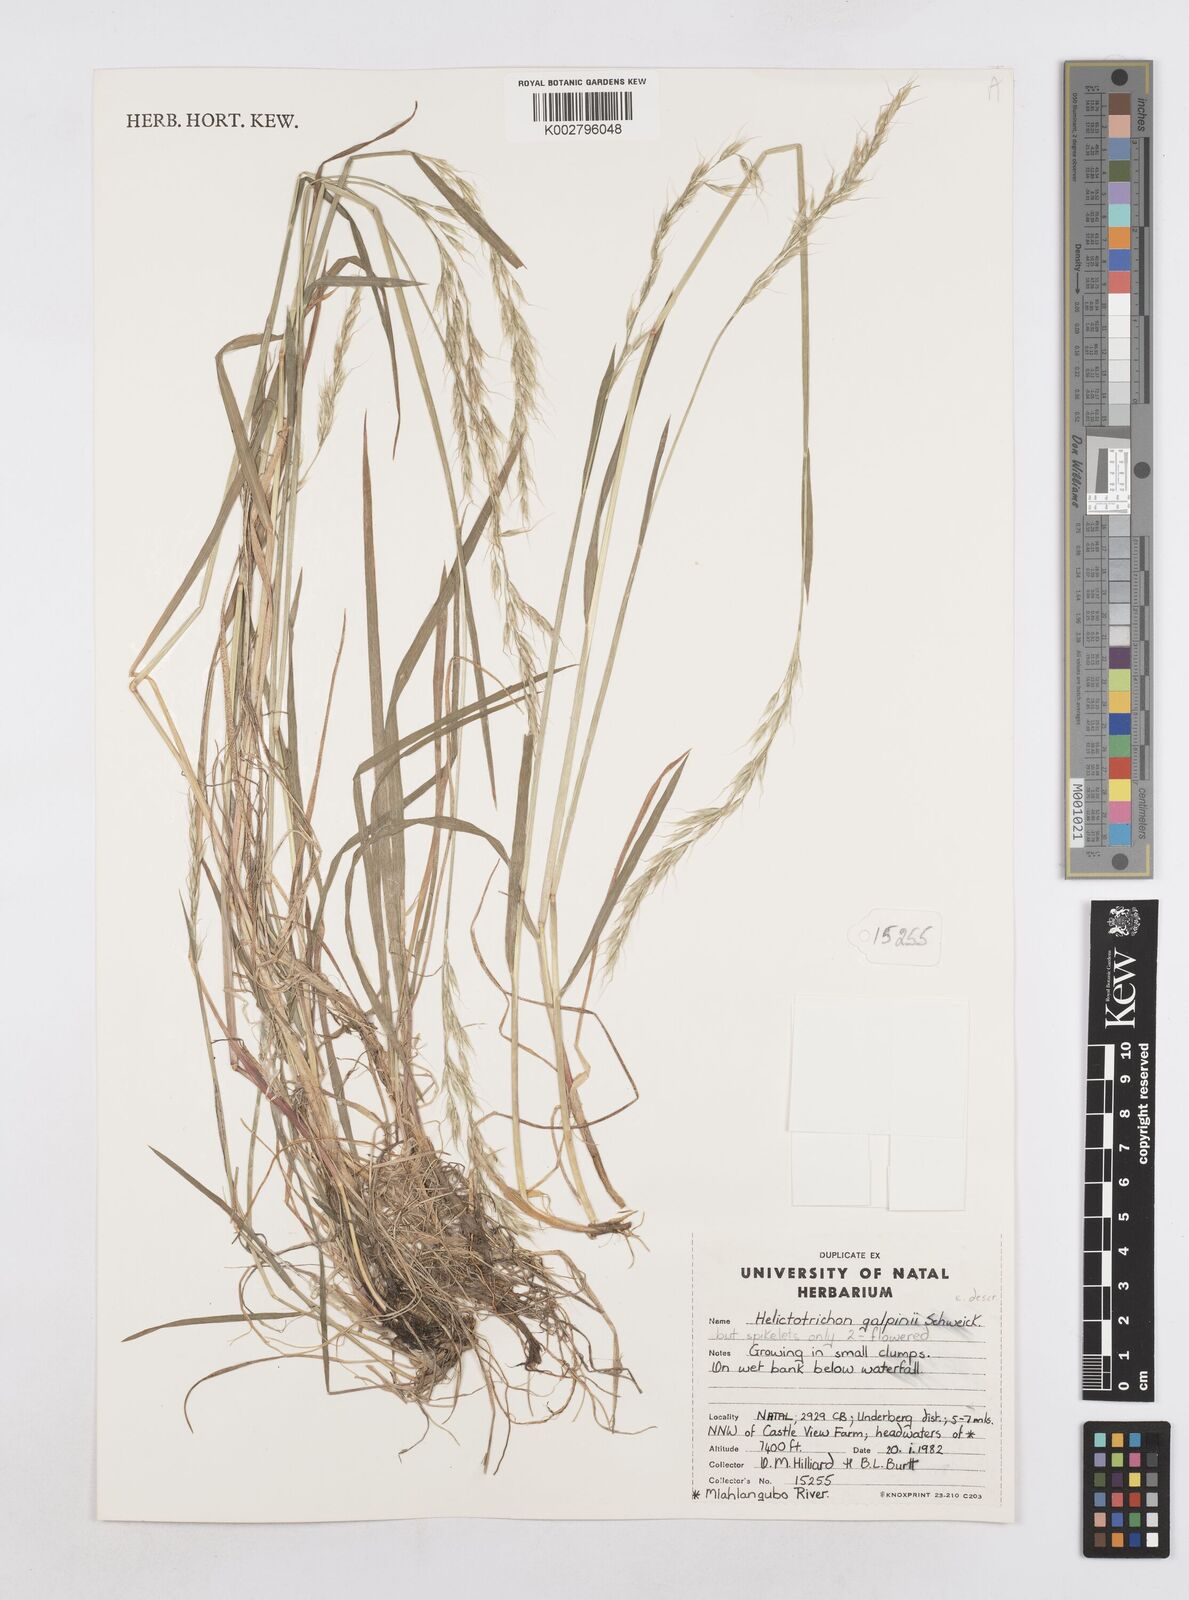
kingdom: Plantae
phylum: Tracheophyta
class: Liliopsida
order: Poales
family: Poaceae
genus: Trisetopsis
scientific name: Trisetopsis capensis
